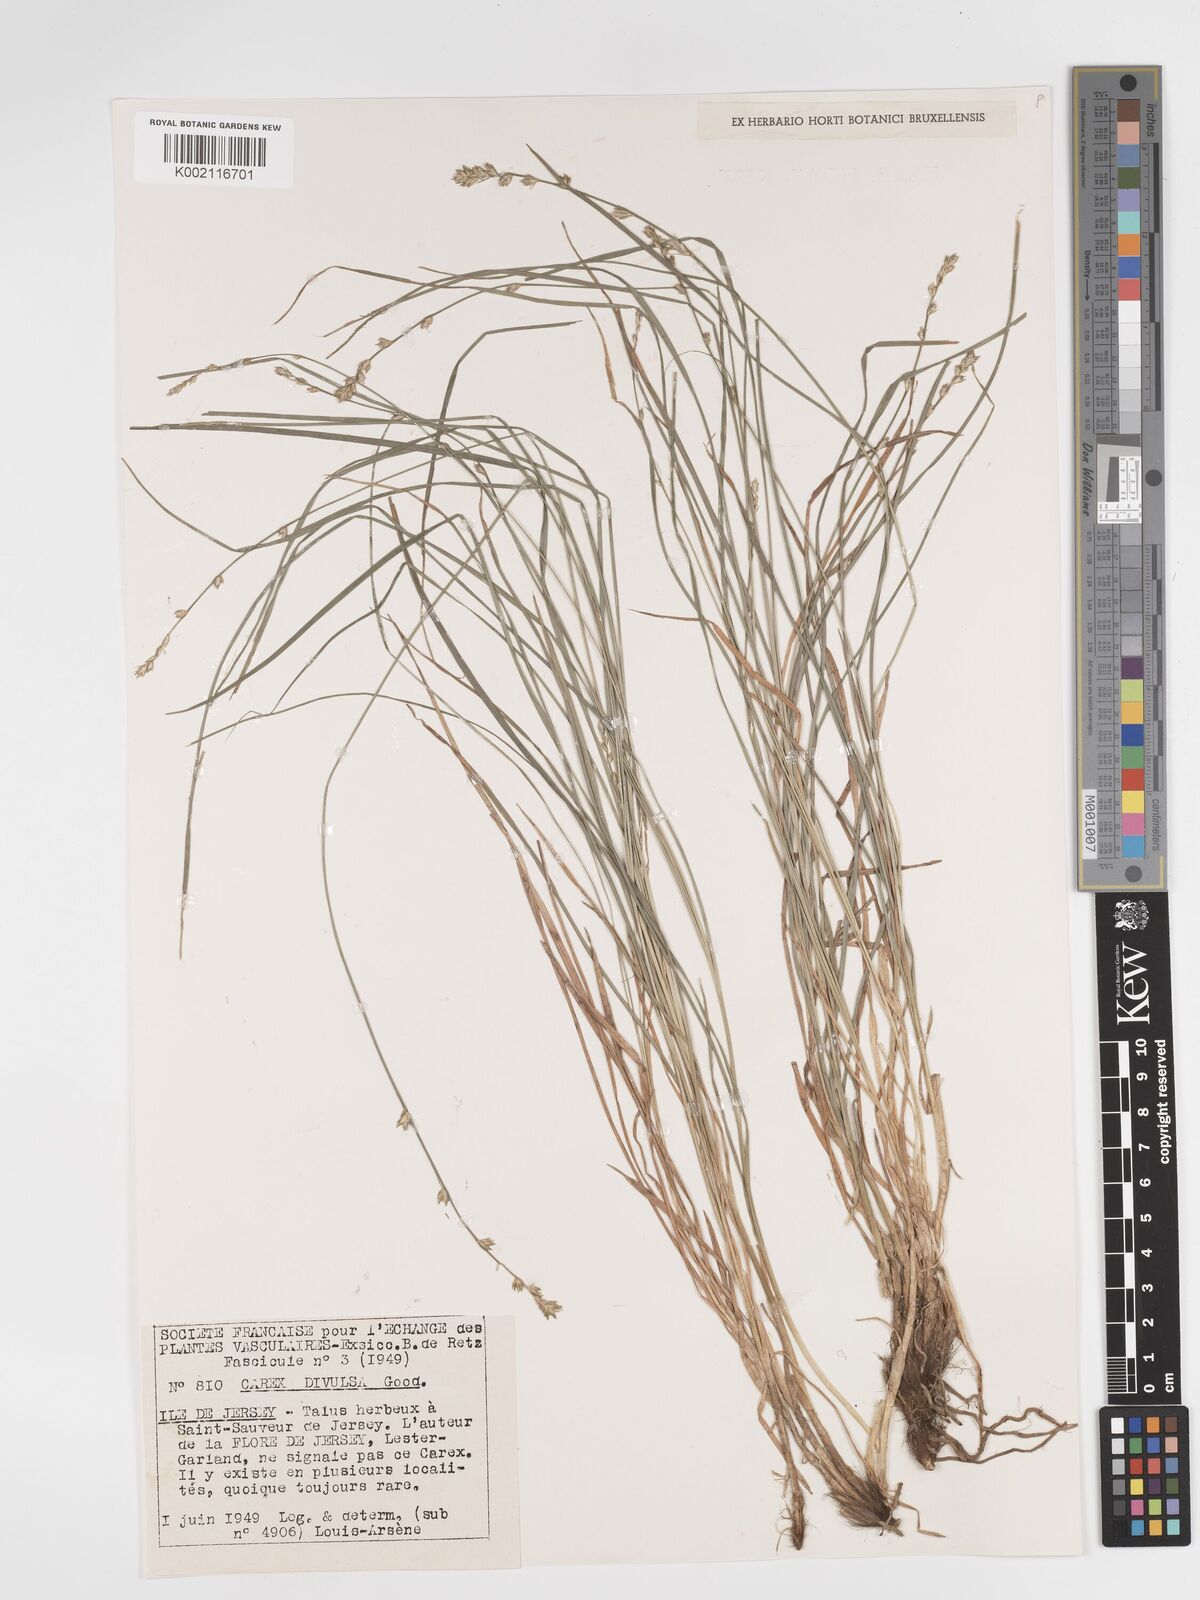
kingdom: Plantae
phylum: Tracheophyta
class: Liliopsida
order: Poales
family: Cyperaceae
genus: Carex
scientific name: Carex divulsa
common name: Grassland sedge
